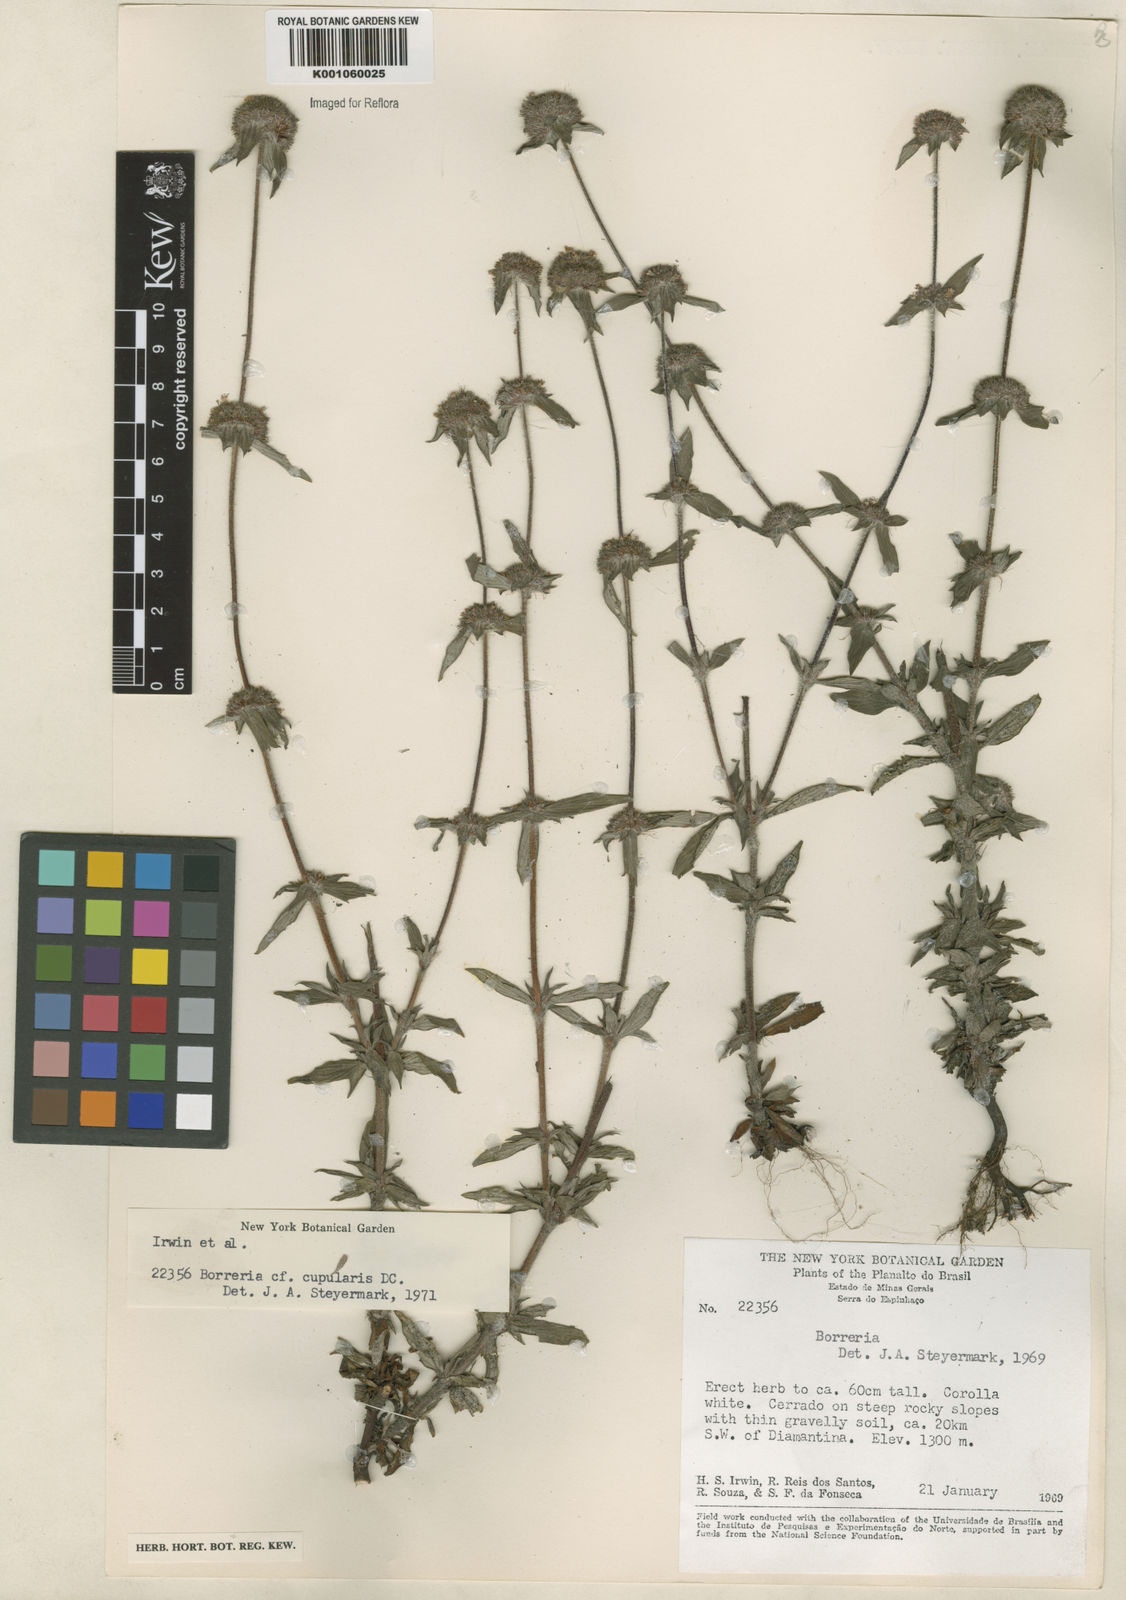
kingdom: Plantae
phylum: Tracheophyta
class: Magnoliopsida
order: Gentianales
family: Rubiaceae
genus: Spermacoce
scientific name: Spermacoce cupularis
